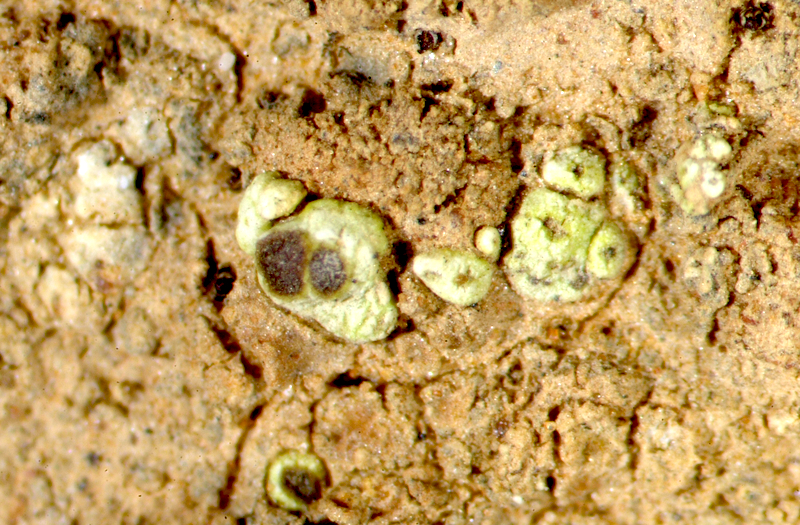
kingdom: Fungi
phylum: Ascomycota
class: Lecanoromycetes
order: Caliciales
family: Caliciaceae
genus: Buellia
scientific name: Buellia
